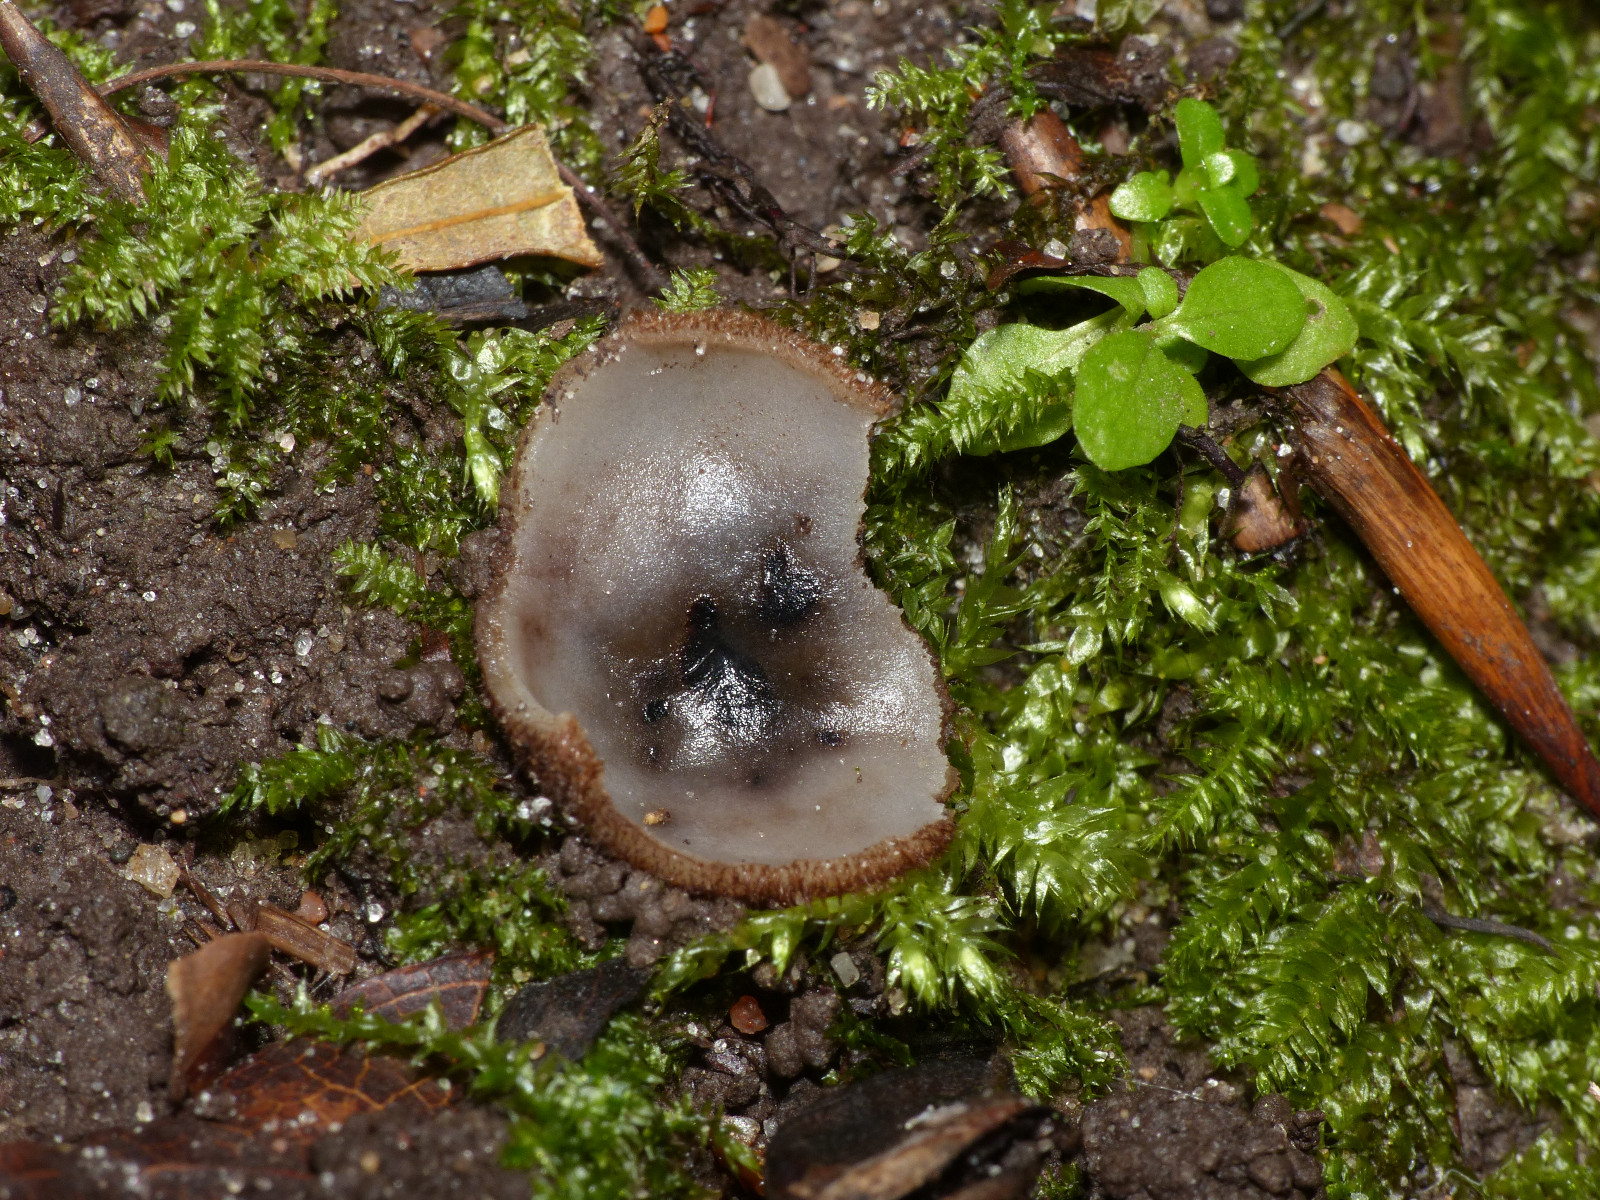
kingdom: Fungi
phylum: Ascomycota
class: Pezizomycetes
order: Pezizales
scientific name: Pezizales
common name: bægersvampordenen
